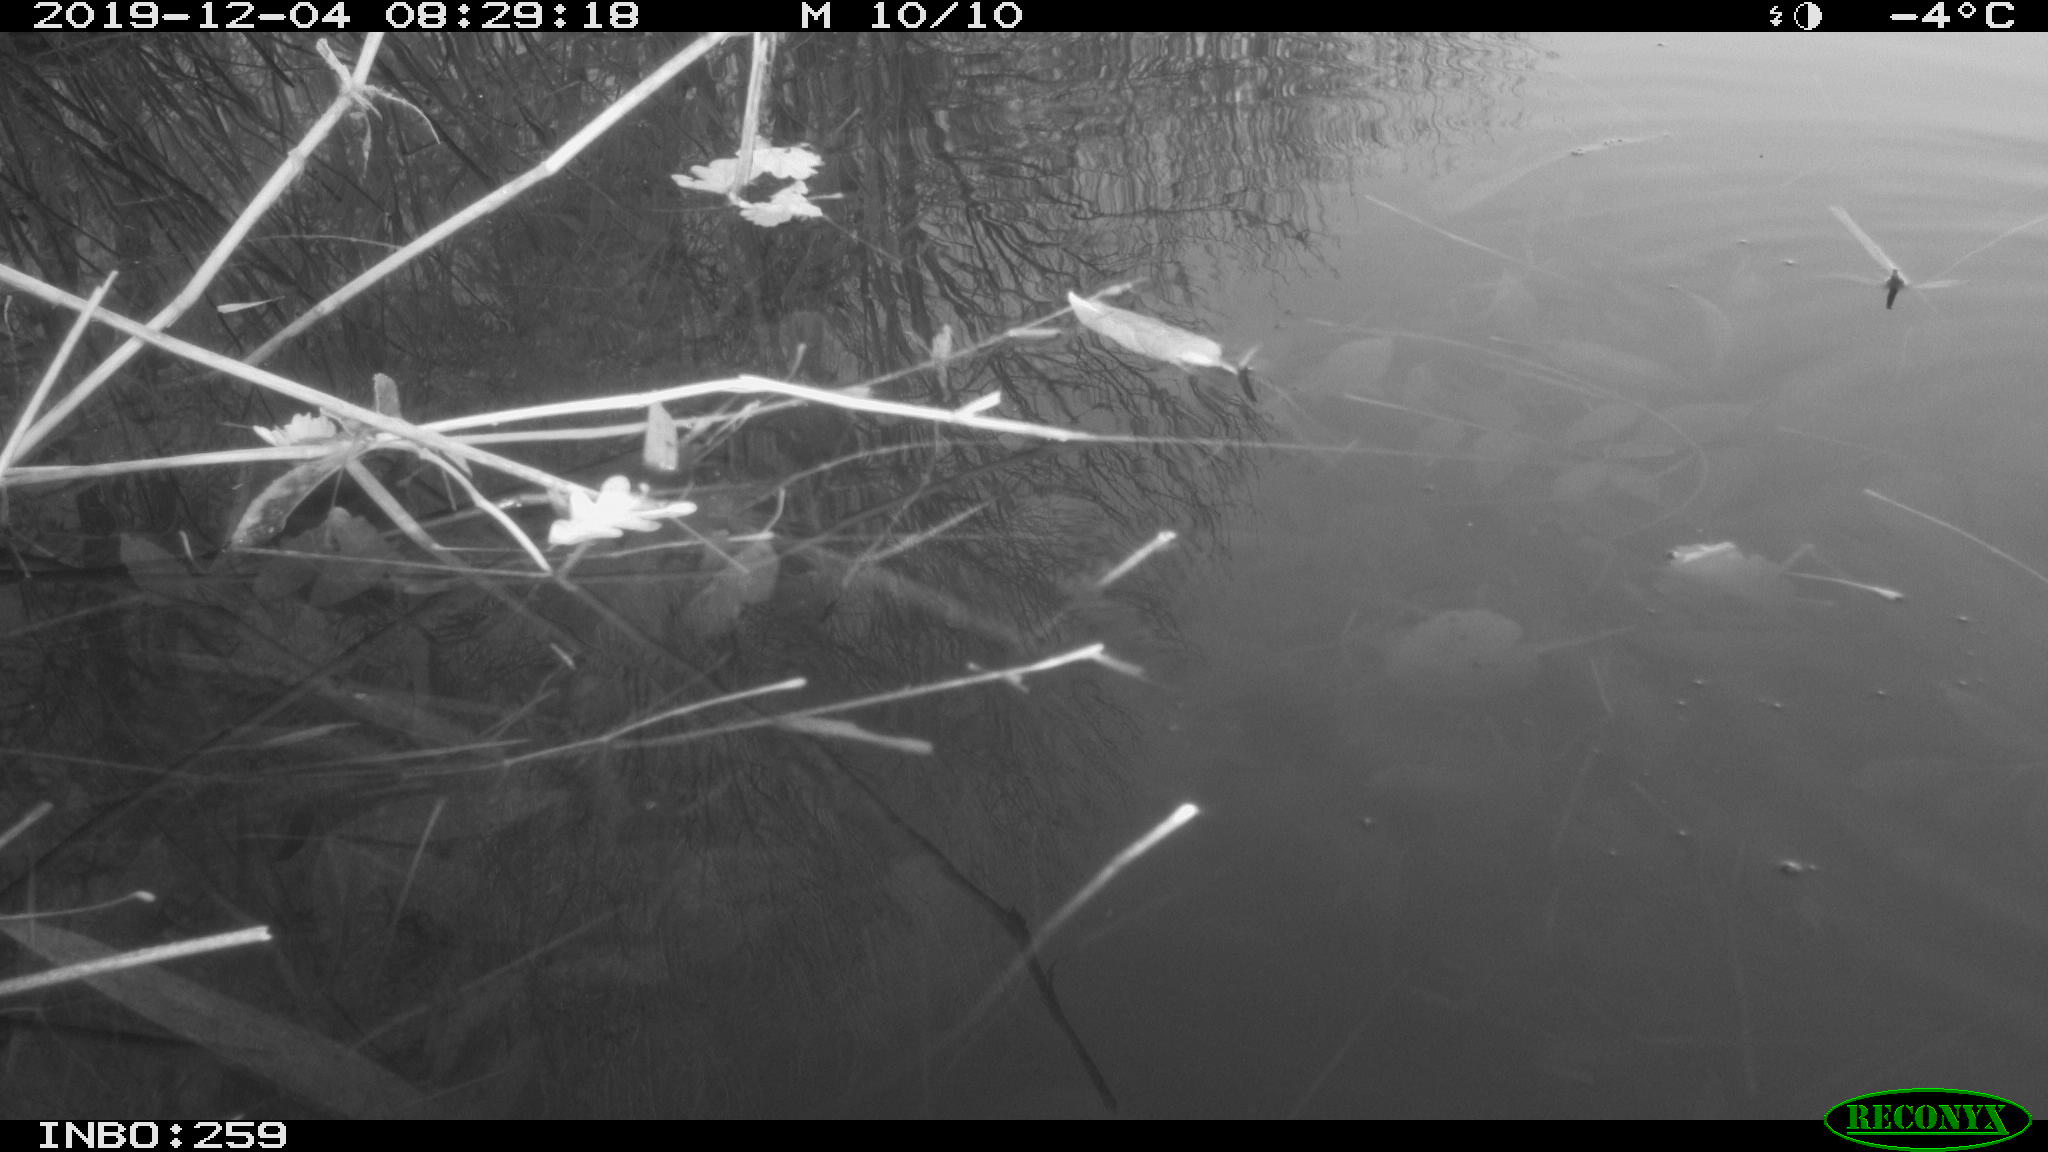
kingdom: Animalia
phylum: Chordata
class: Aves
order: Gruiformes
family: Rallidae
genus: Gallinula
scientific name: Gallinula chloropus
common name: Common moorhen
